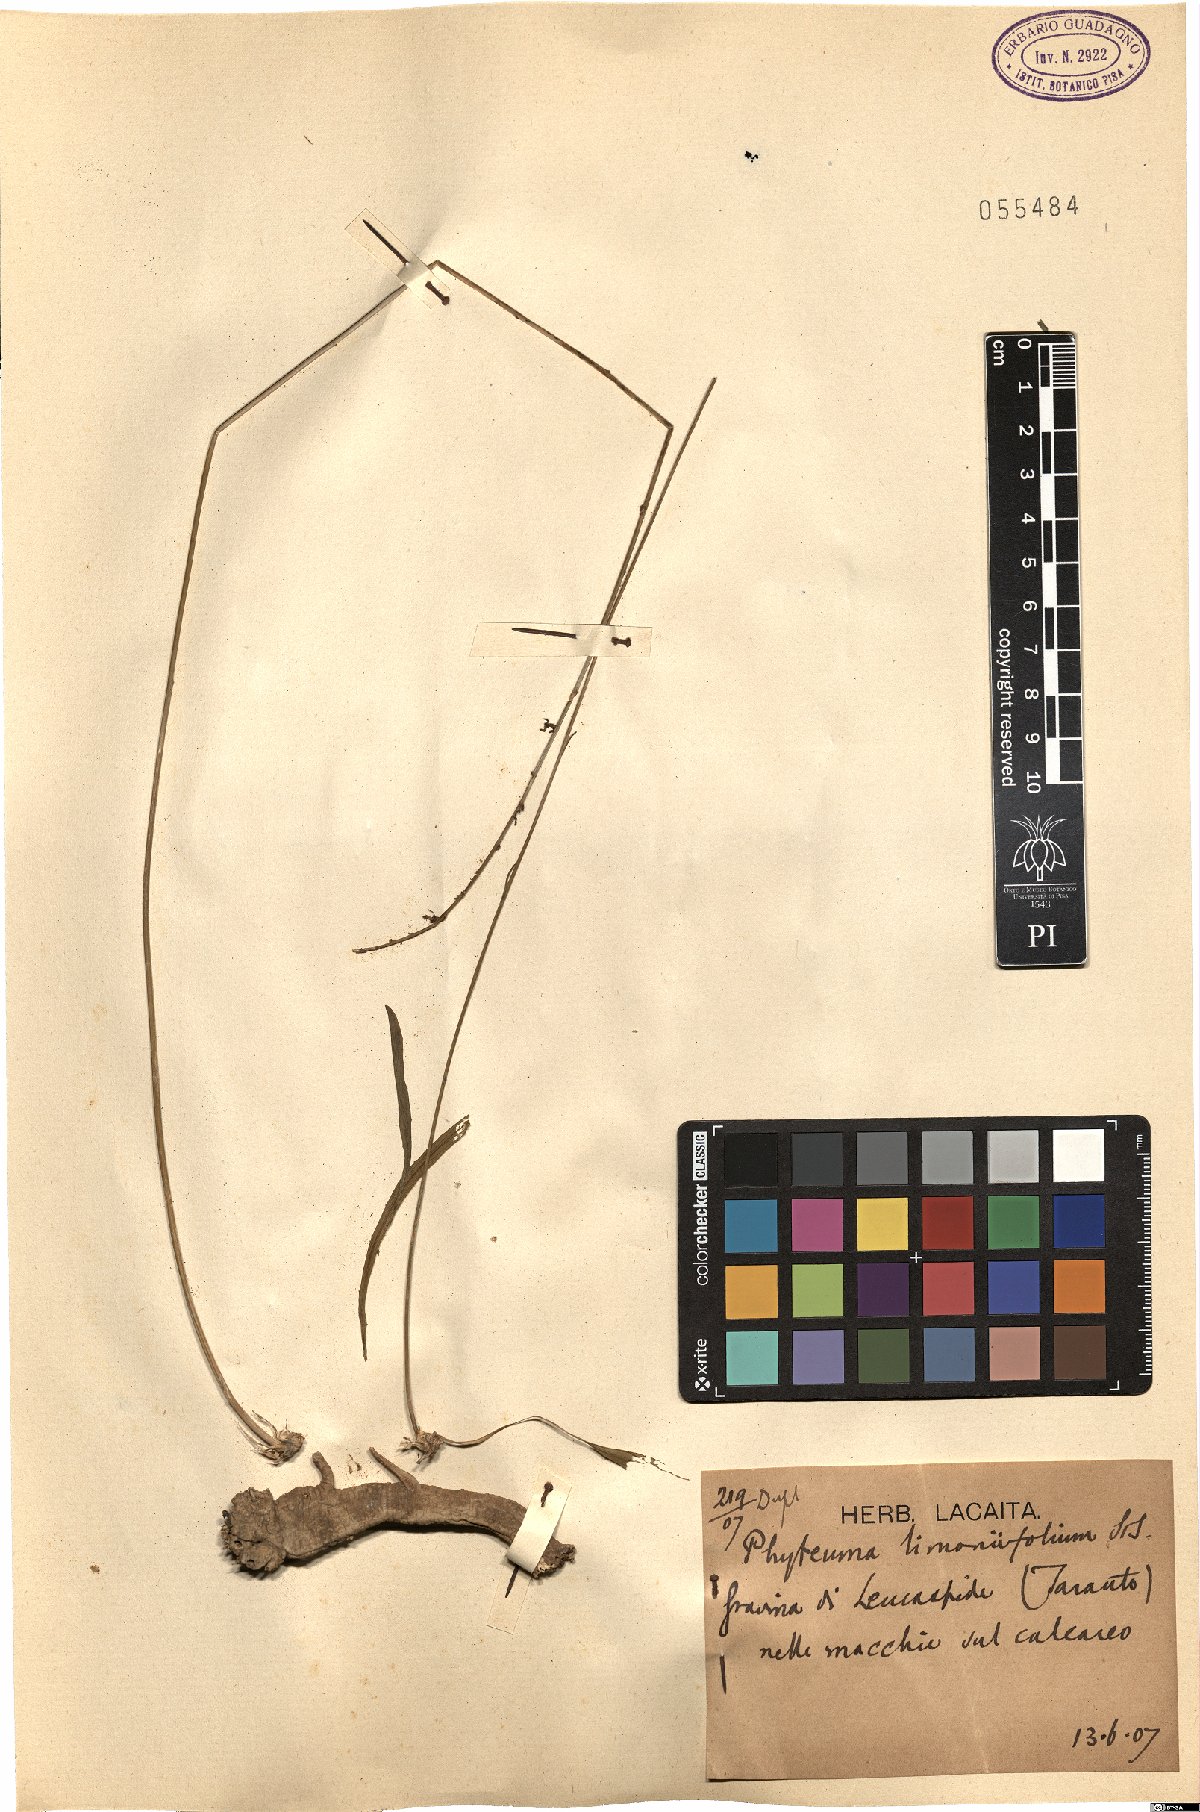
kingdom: Plantae
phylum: Tracheophyta
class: Magnoliopsida
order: Asterales
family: Campanulaceae
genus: Asyneuma
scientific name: Asyneuma limonifolium
